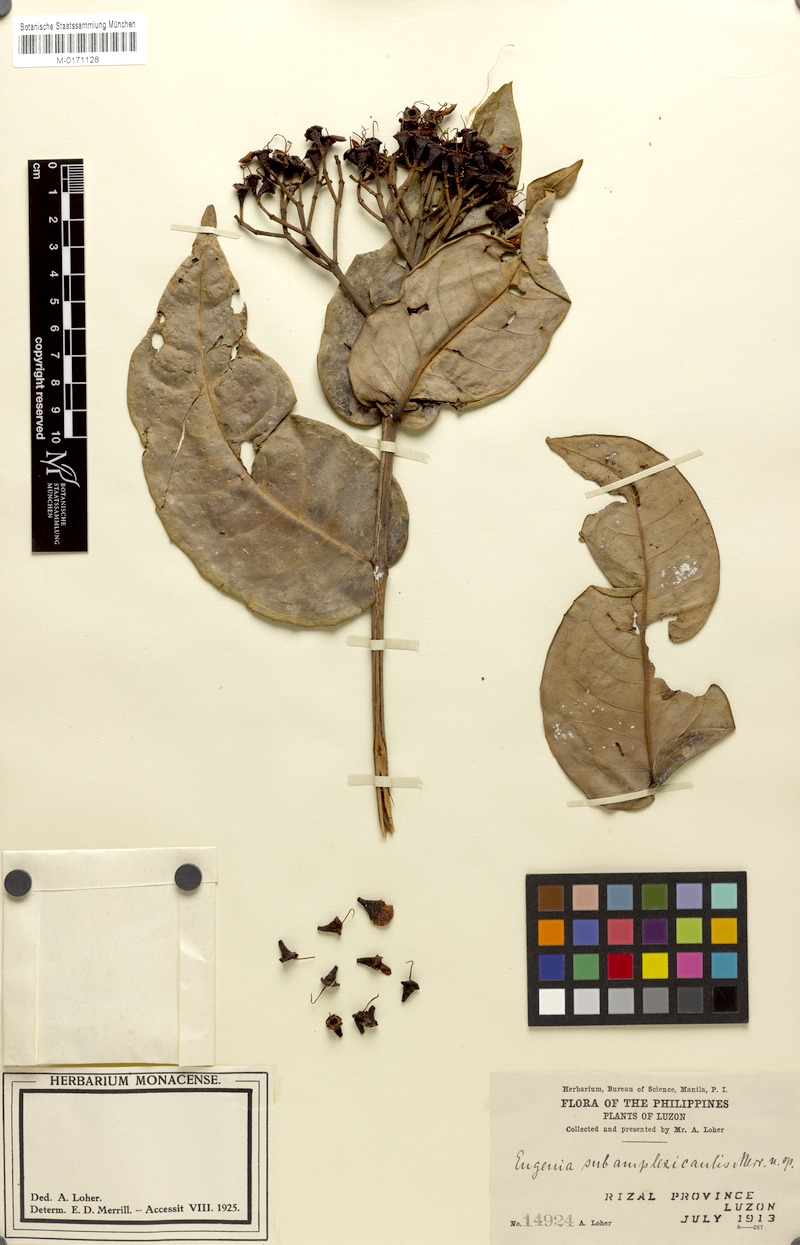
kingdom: Plantae
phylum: Tracheophyta
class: Magnoliopsida
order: Myrtales
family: Myrtaceae
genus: Eugenia
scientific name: Eugenia
